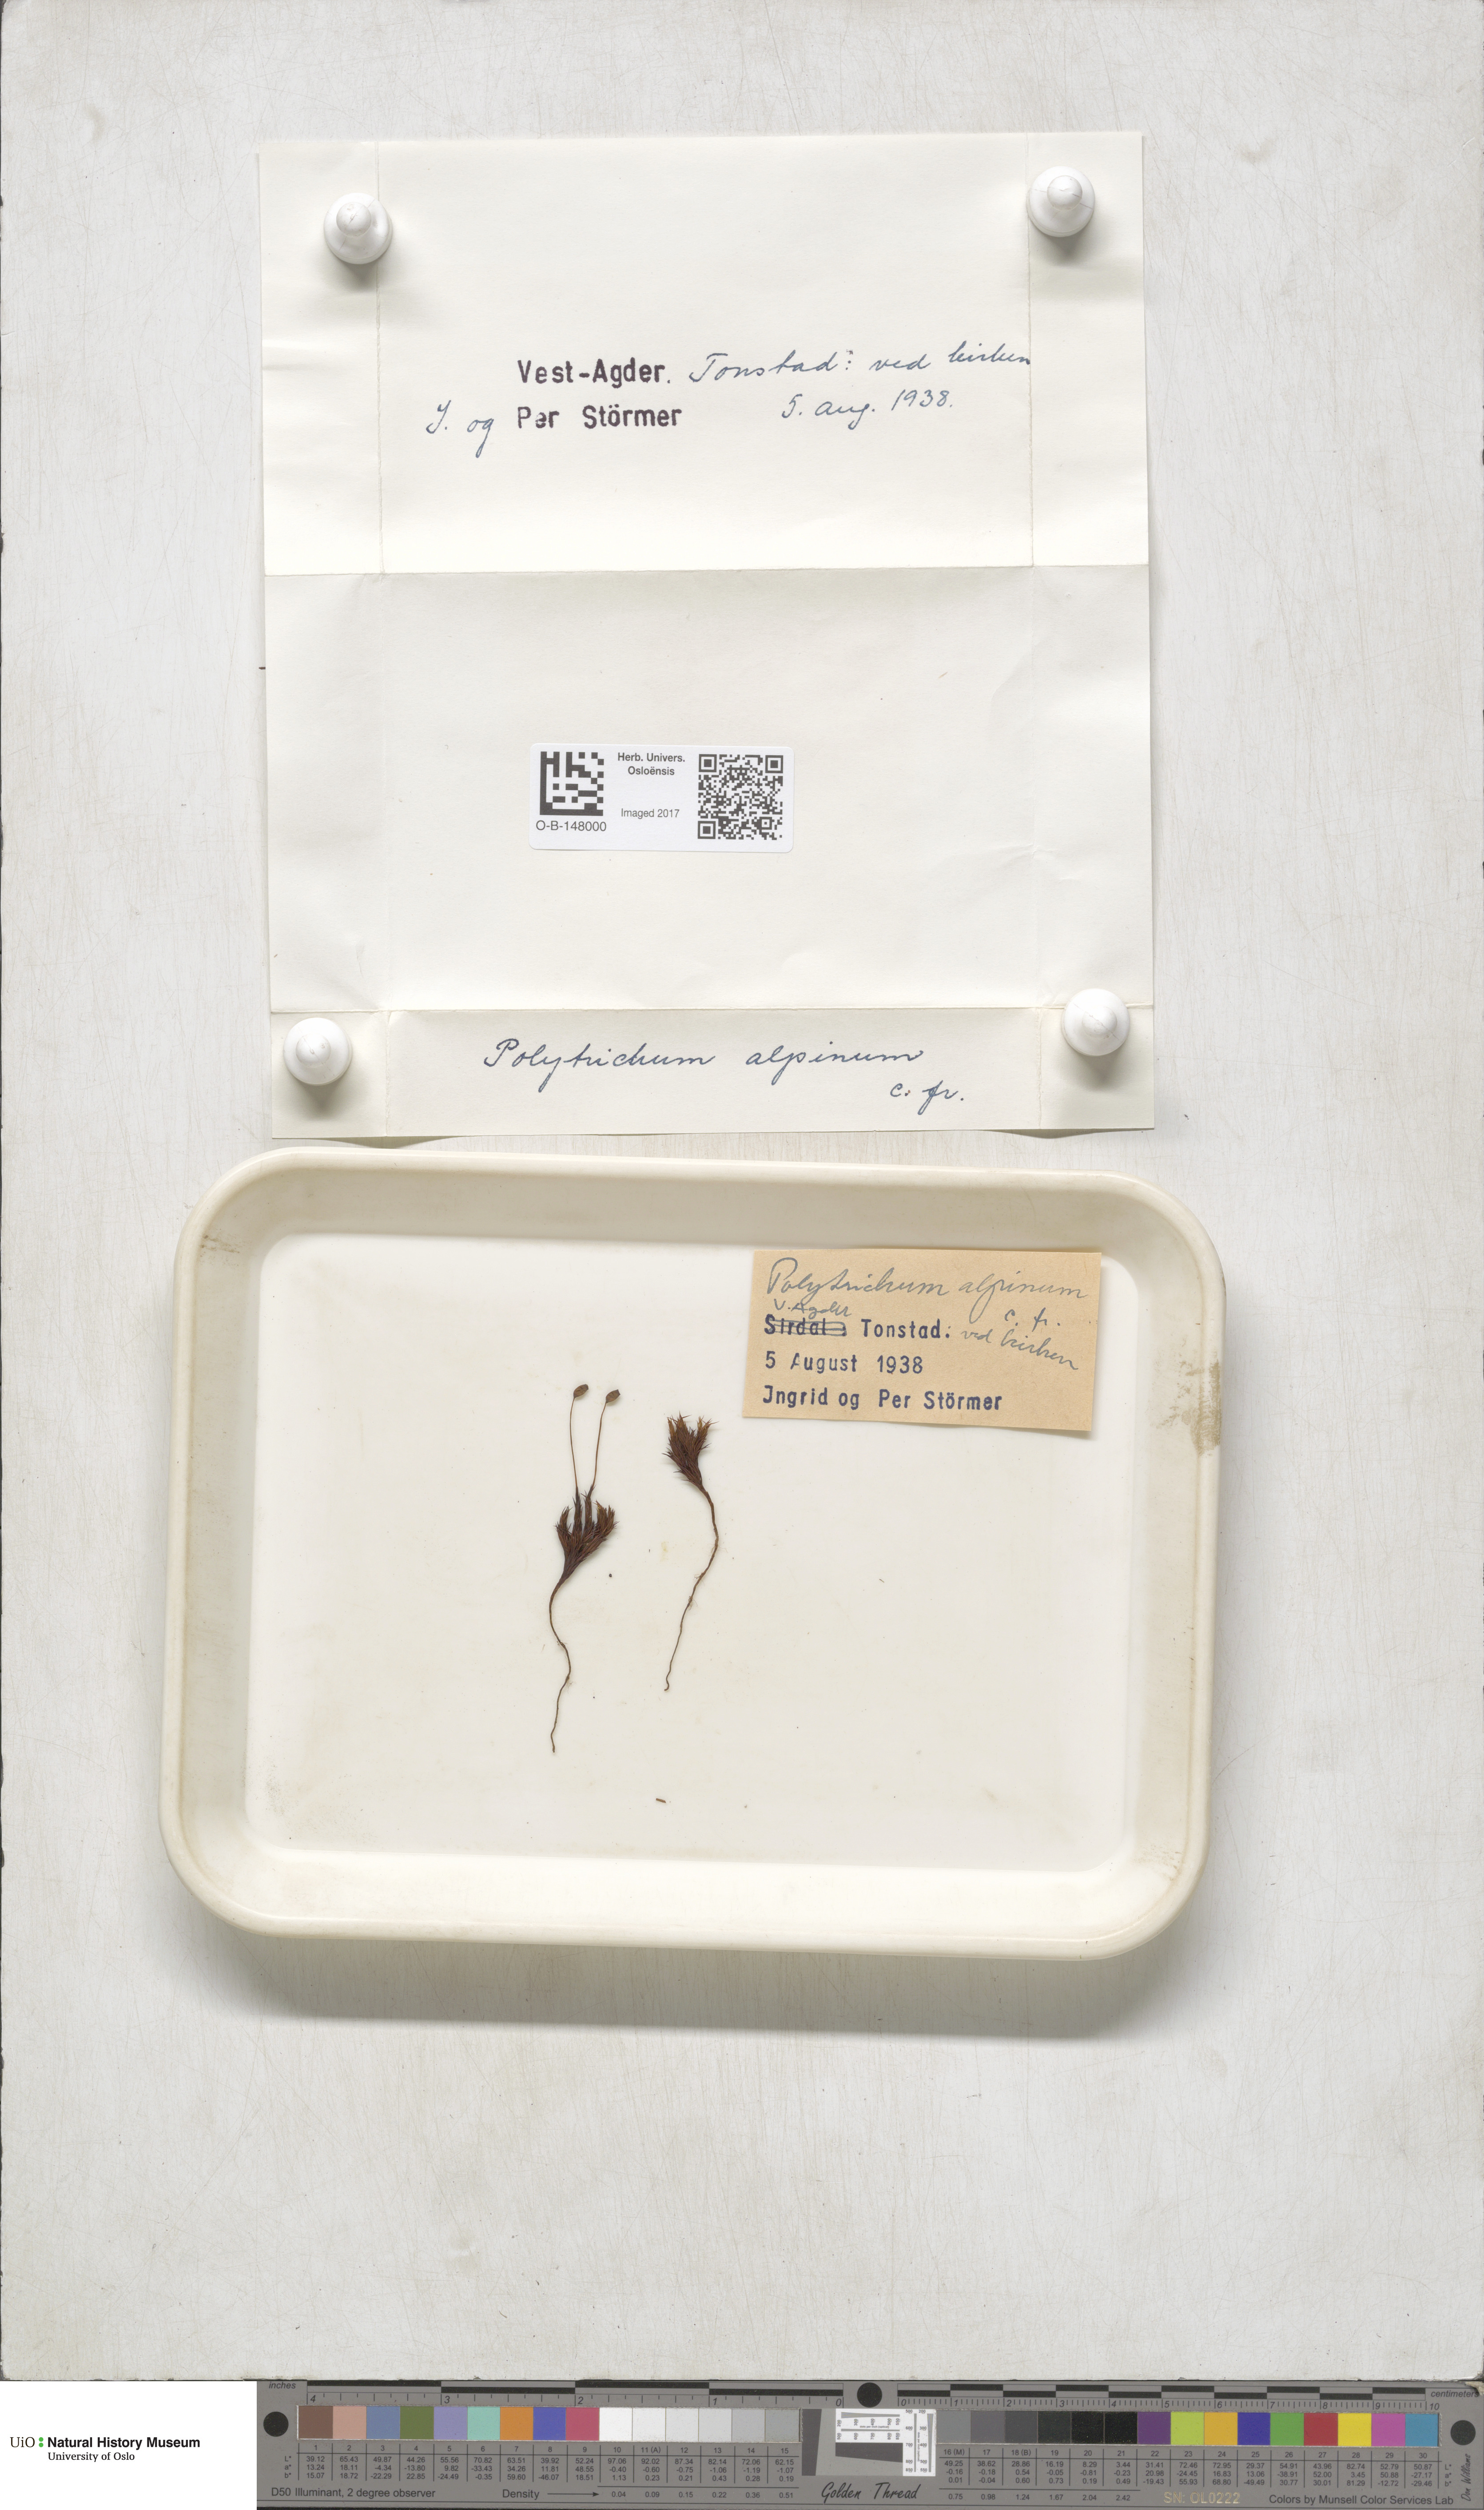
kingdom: Plantae
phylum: Bryophyta
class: Polytrichopsida
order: Polytrichales
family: Polytrichaceae
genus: Polytrichastrum
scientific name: Polytrichastrum alpinum
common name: Alpine haircap
